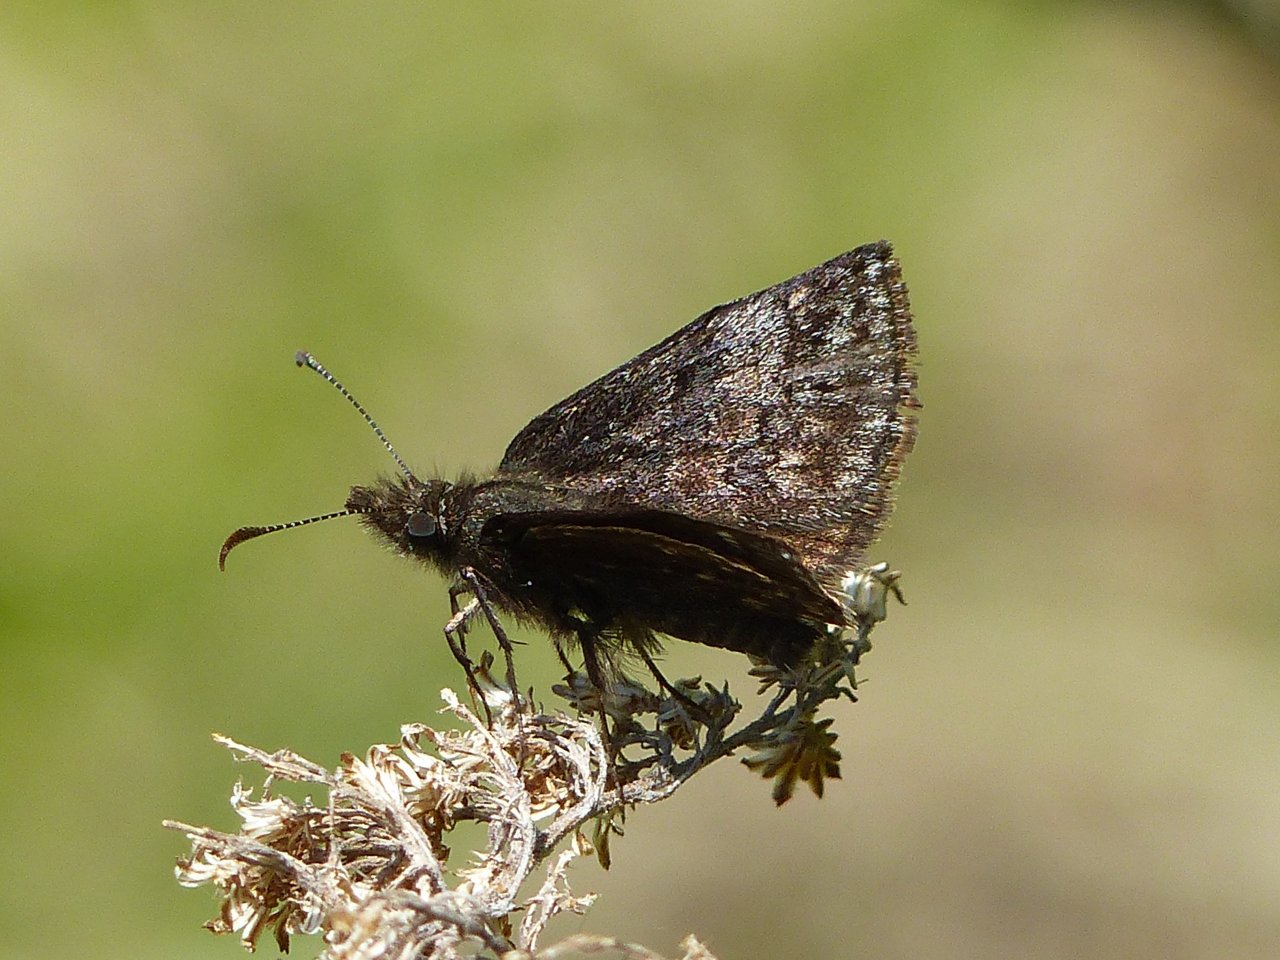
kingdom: Animalia
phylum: Arthropoda
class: Insecta
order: Lepidoptera
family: Hesperiidae
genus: Erynnis
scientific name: Erynnis icelus
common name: Dreamy Duskywing
